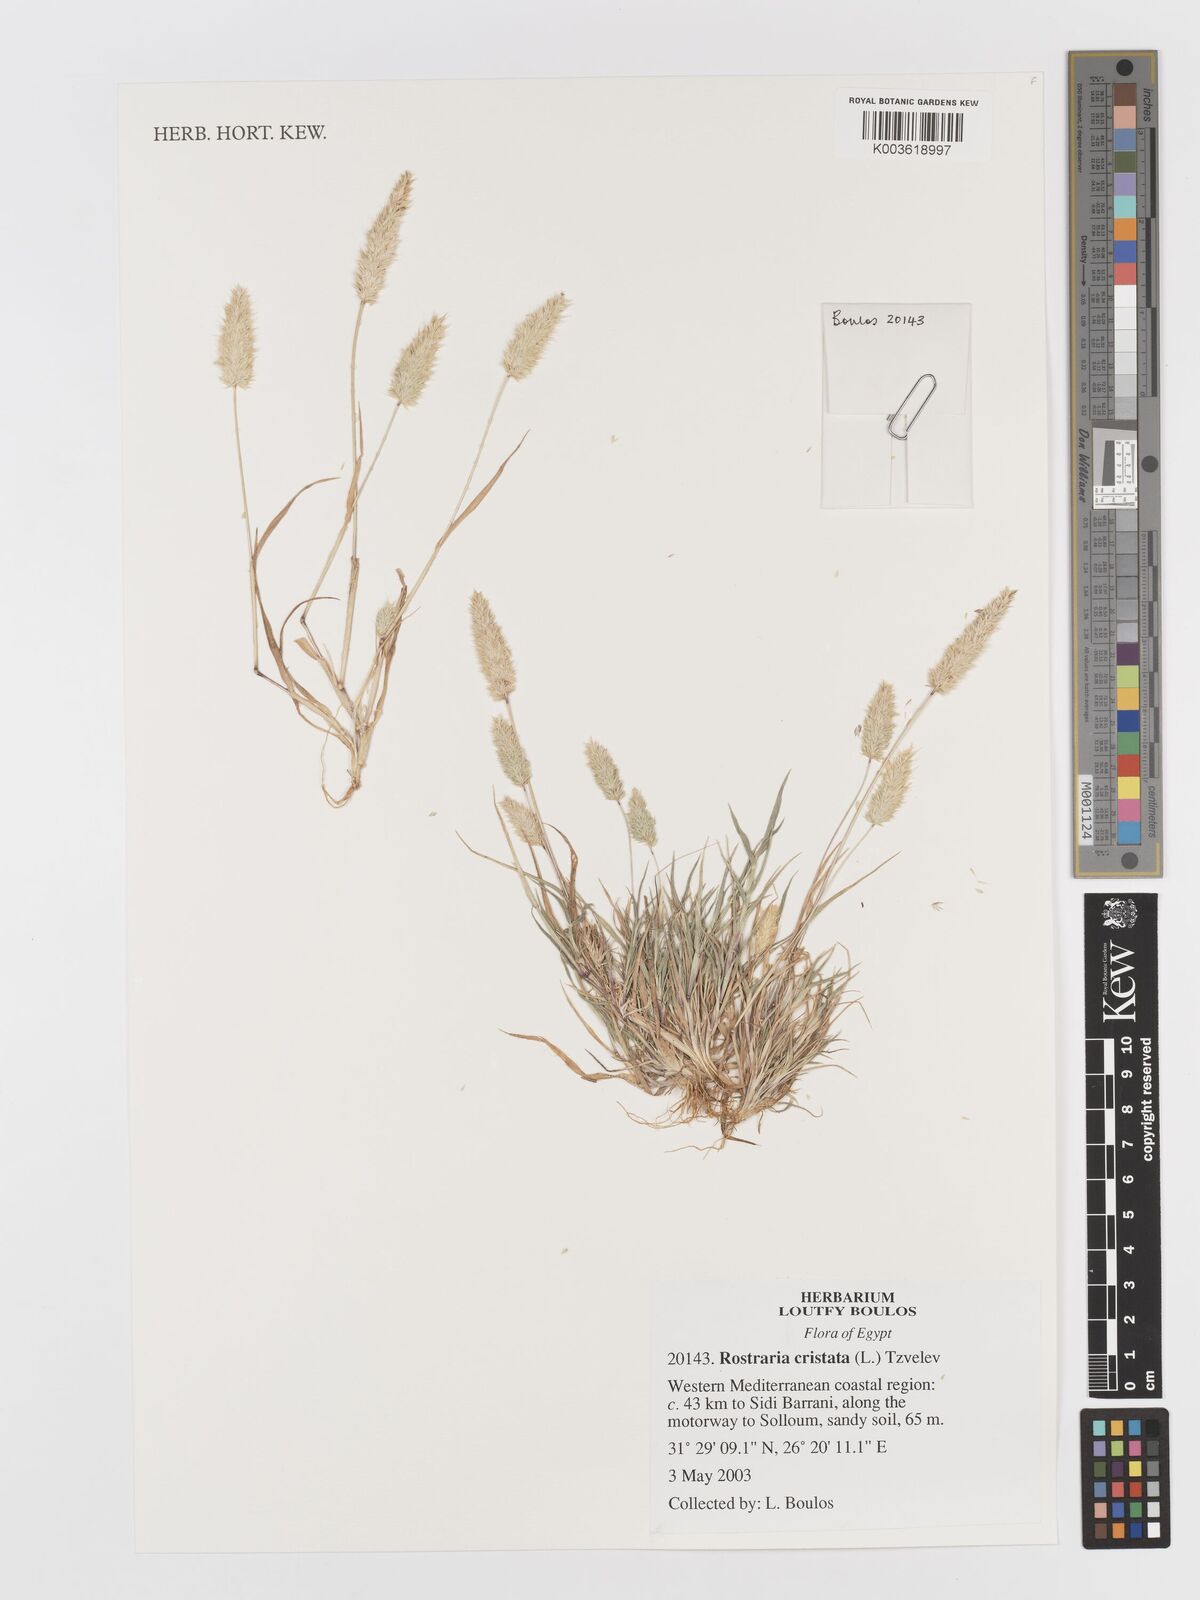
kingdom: Plantae
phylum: Tracheophyta
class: Liliopsida
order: Poales
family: Poaceae
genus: Rostraria
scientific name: Rostraria cristata
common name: Mediterranean hair-grass
